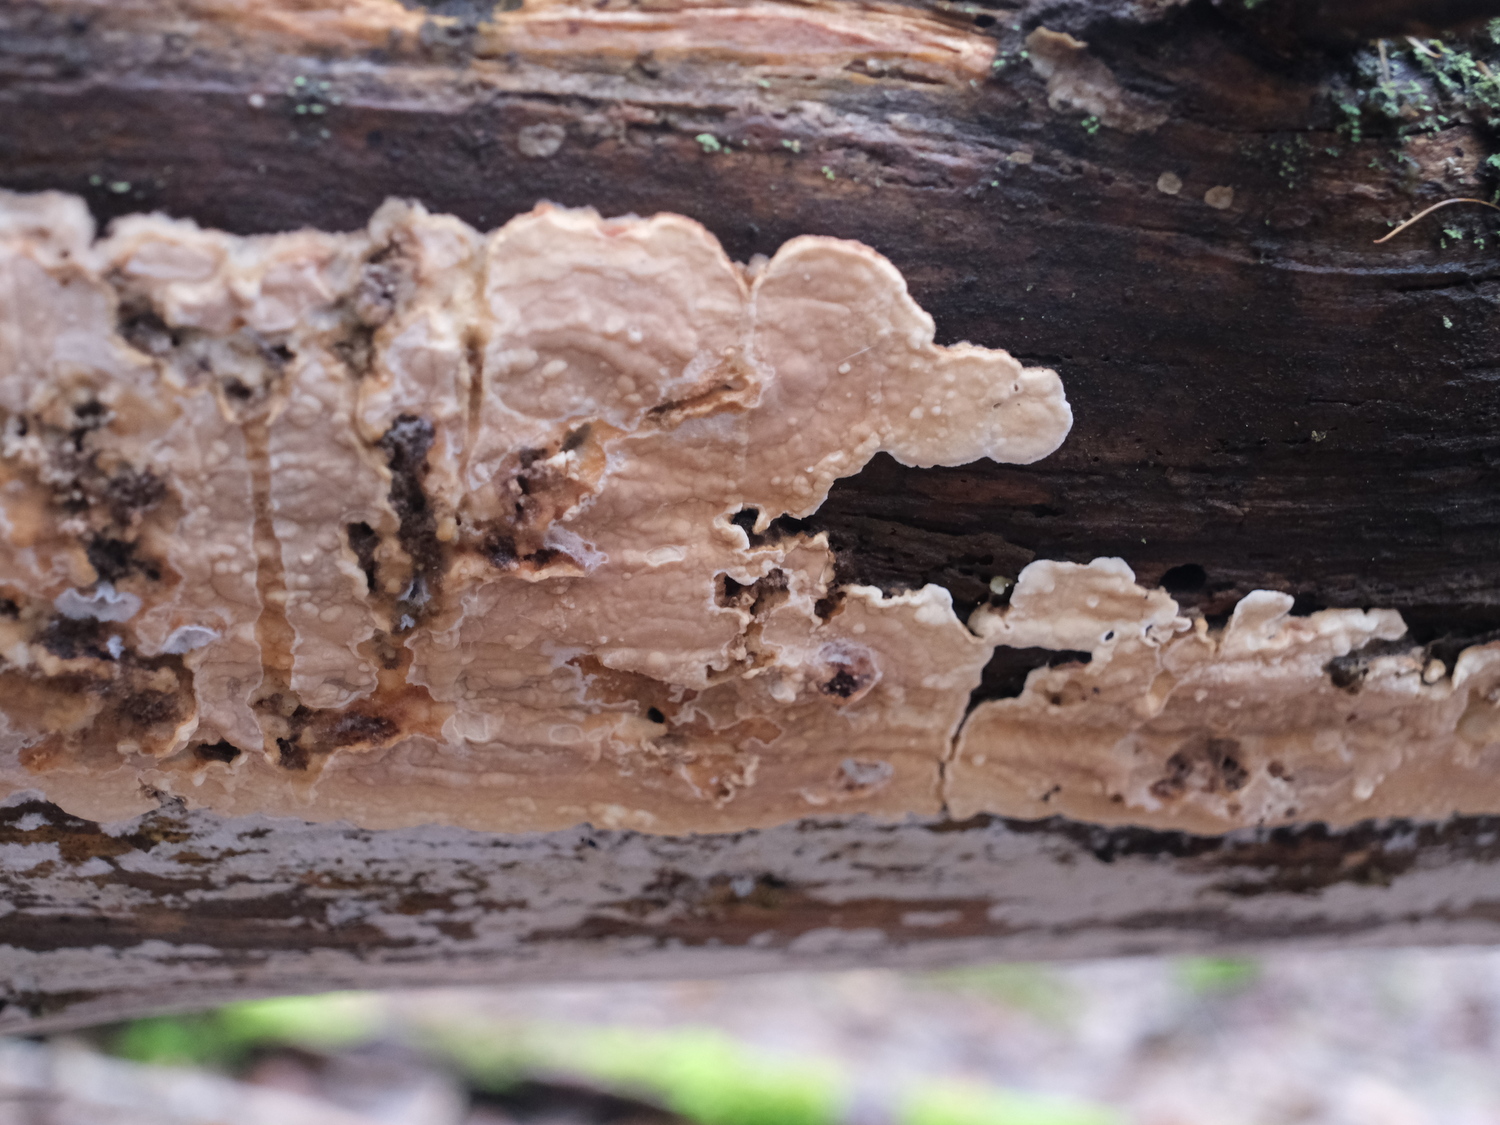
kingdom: Fungi
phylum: Basidiomycota
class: Agaricomycetes
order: Polyporales
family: Dacryobolaceae
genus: Dacryobolus
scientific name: Dacryobolus karstenii
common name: glat vulkanskorpe
